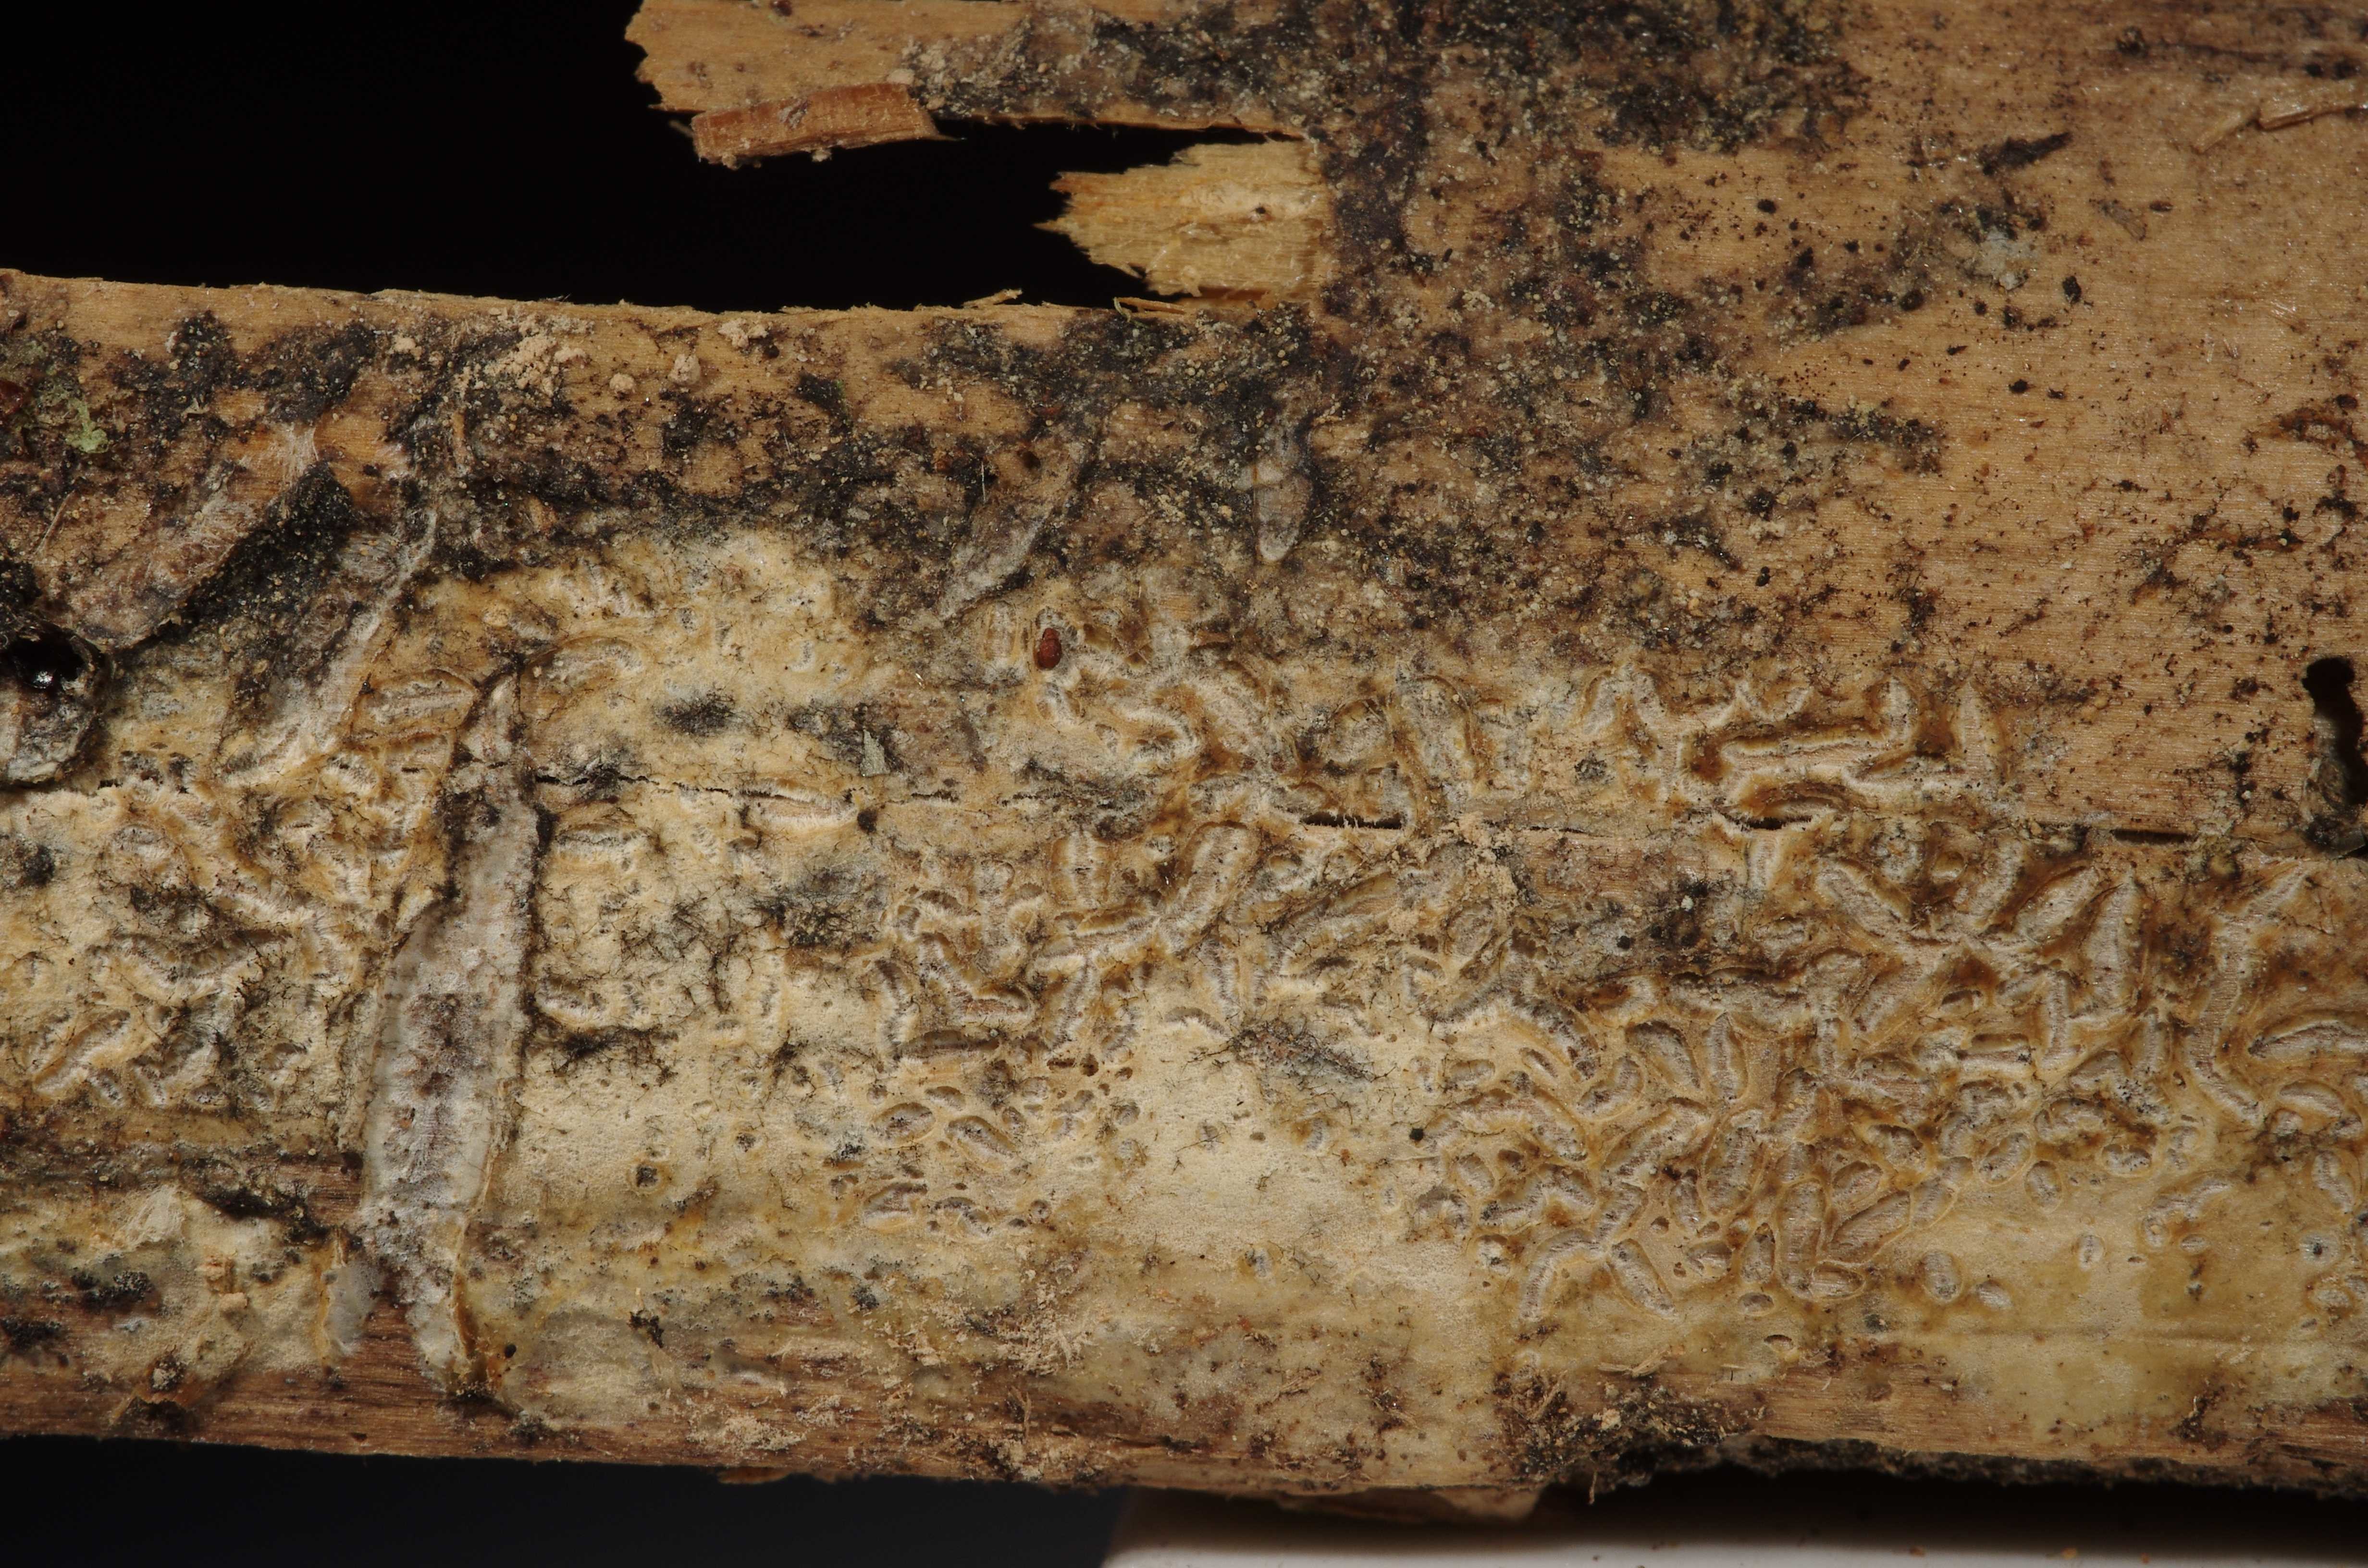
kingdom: Fungi
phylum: Basidiomycota
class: Agaricomycetes
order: Polyporales
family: Sparassidaceae
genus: Crustoderma
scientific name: Crustoderma triste
